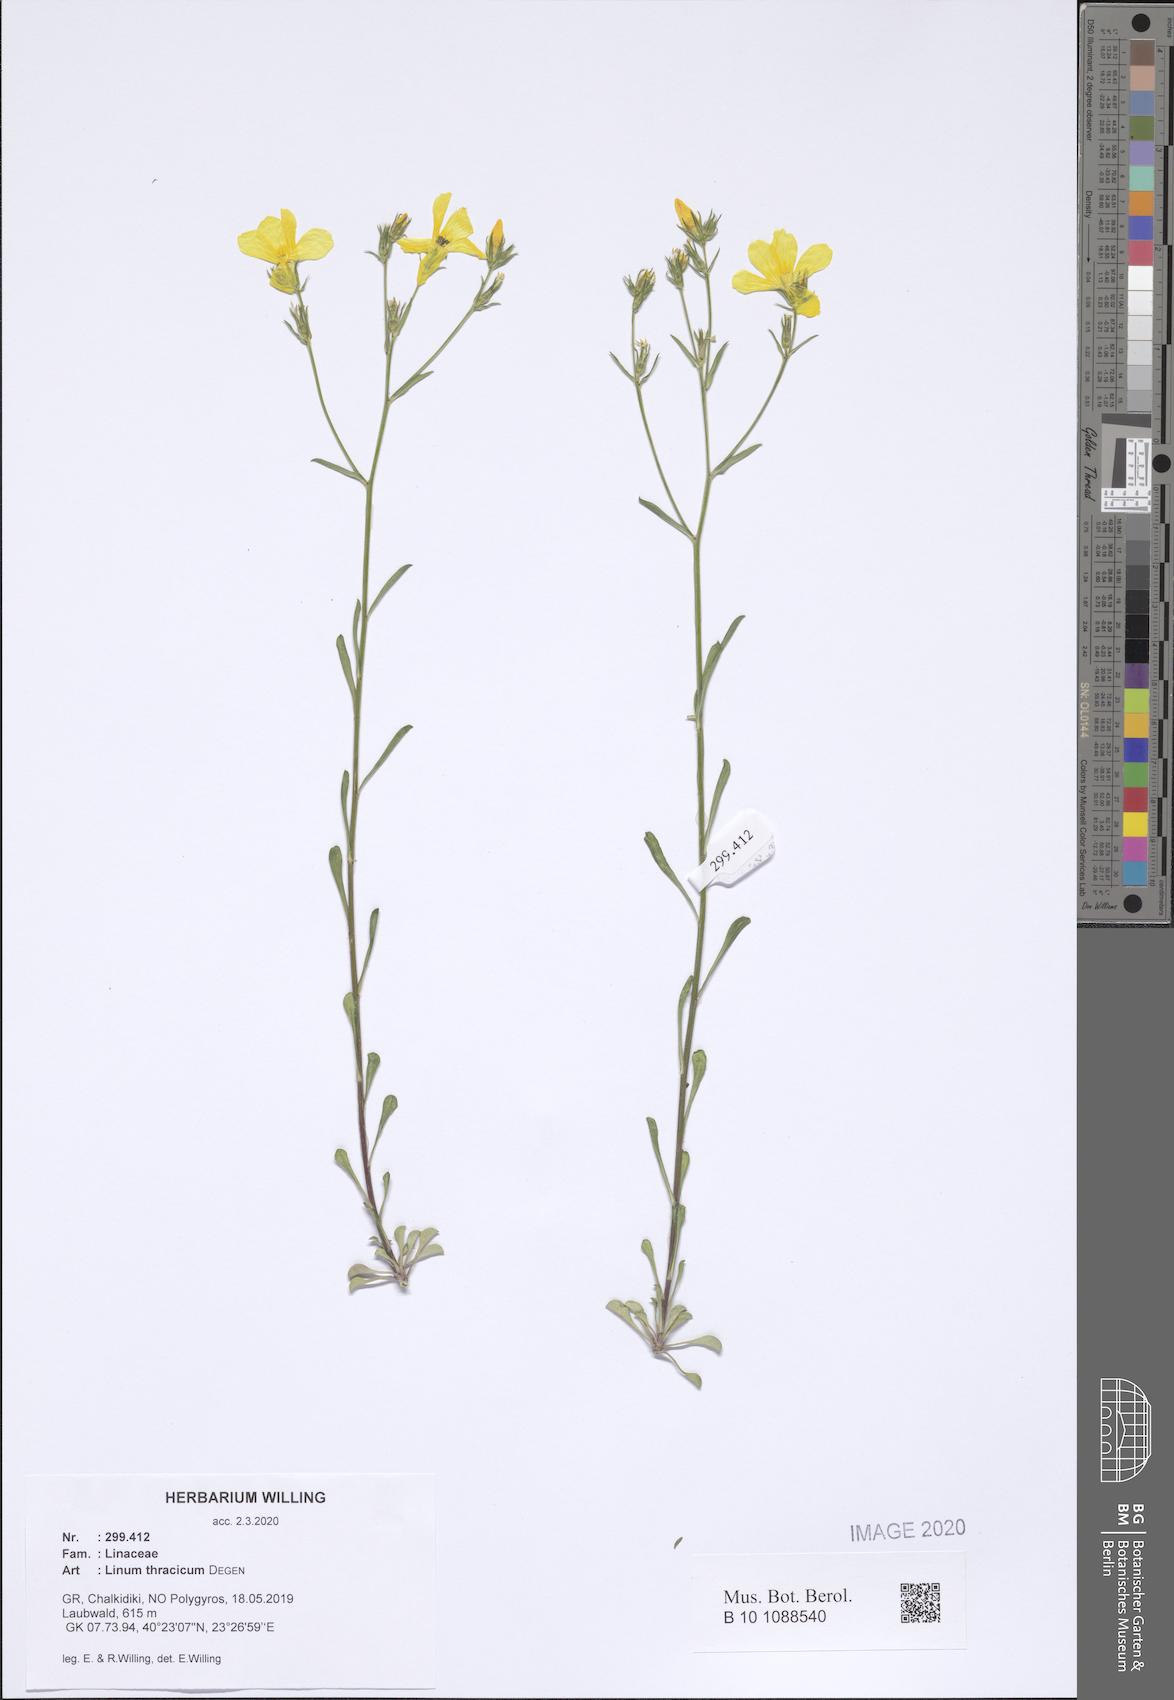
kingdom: Plantae
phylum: Tracheophyta
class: Magnoliopsida
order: Malpighiales
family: Linaceae
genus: Linum
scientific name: Linum thracicum
